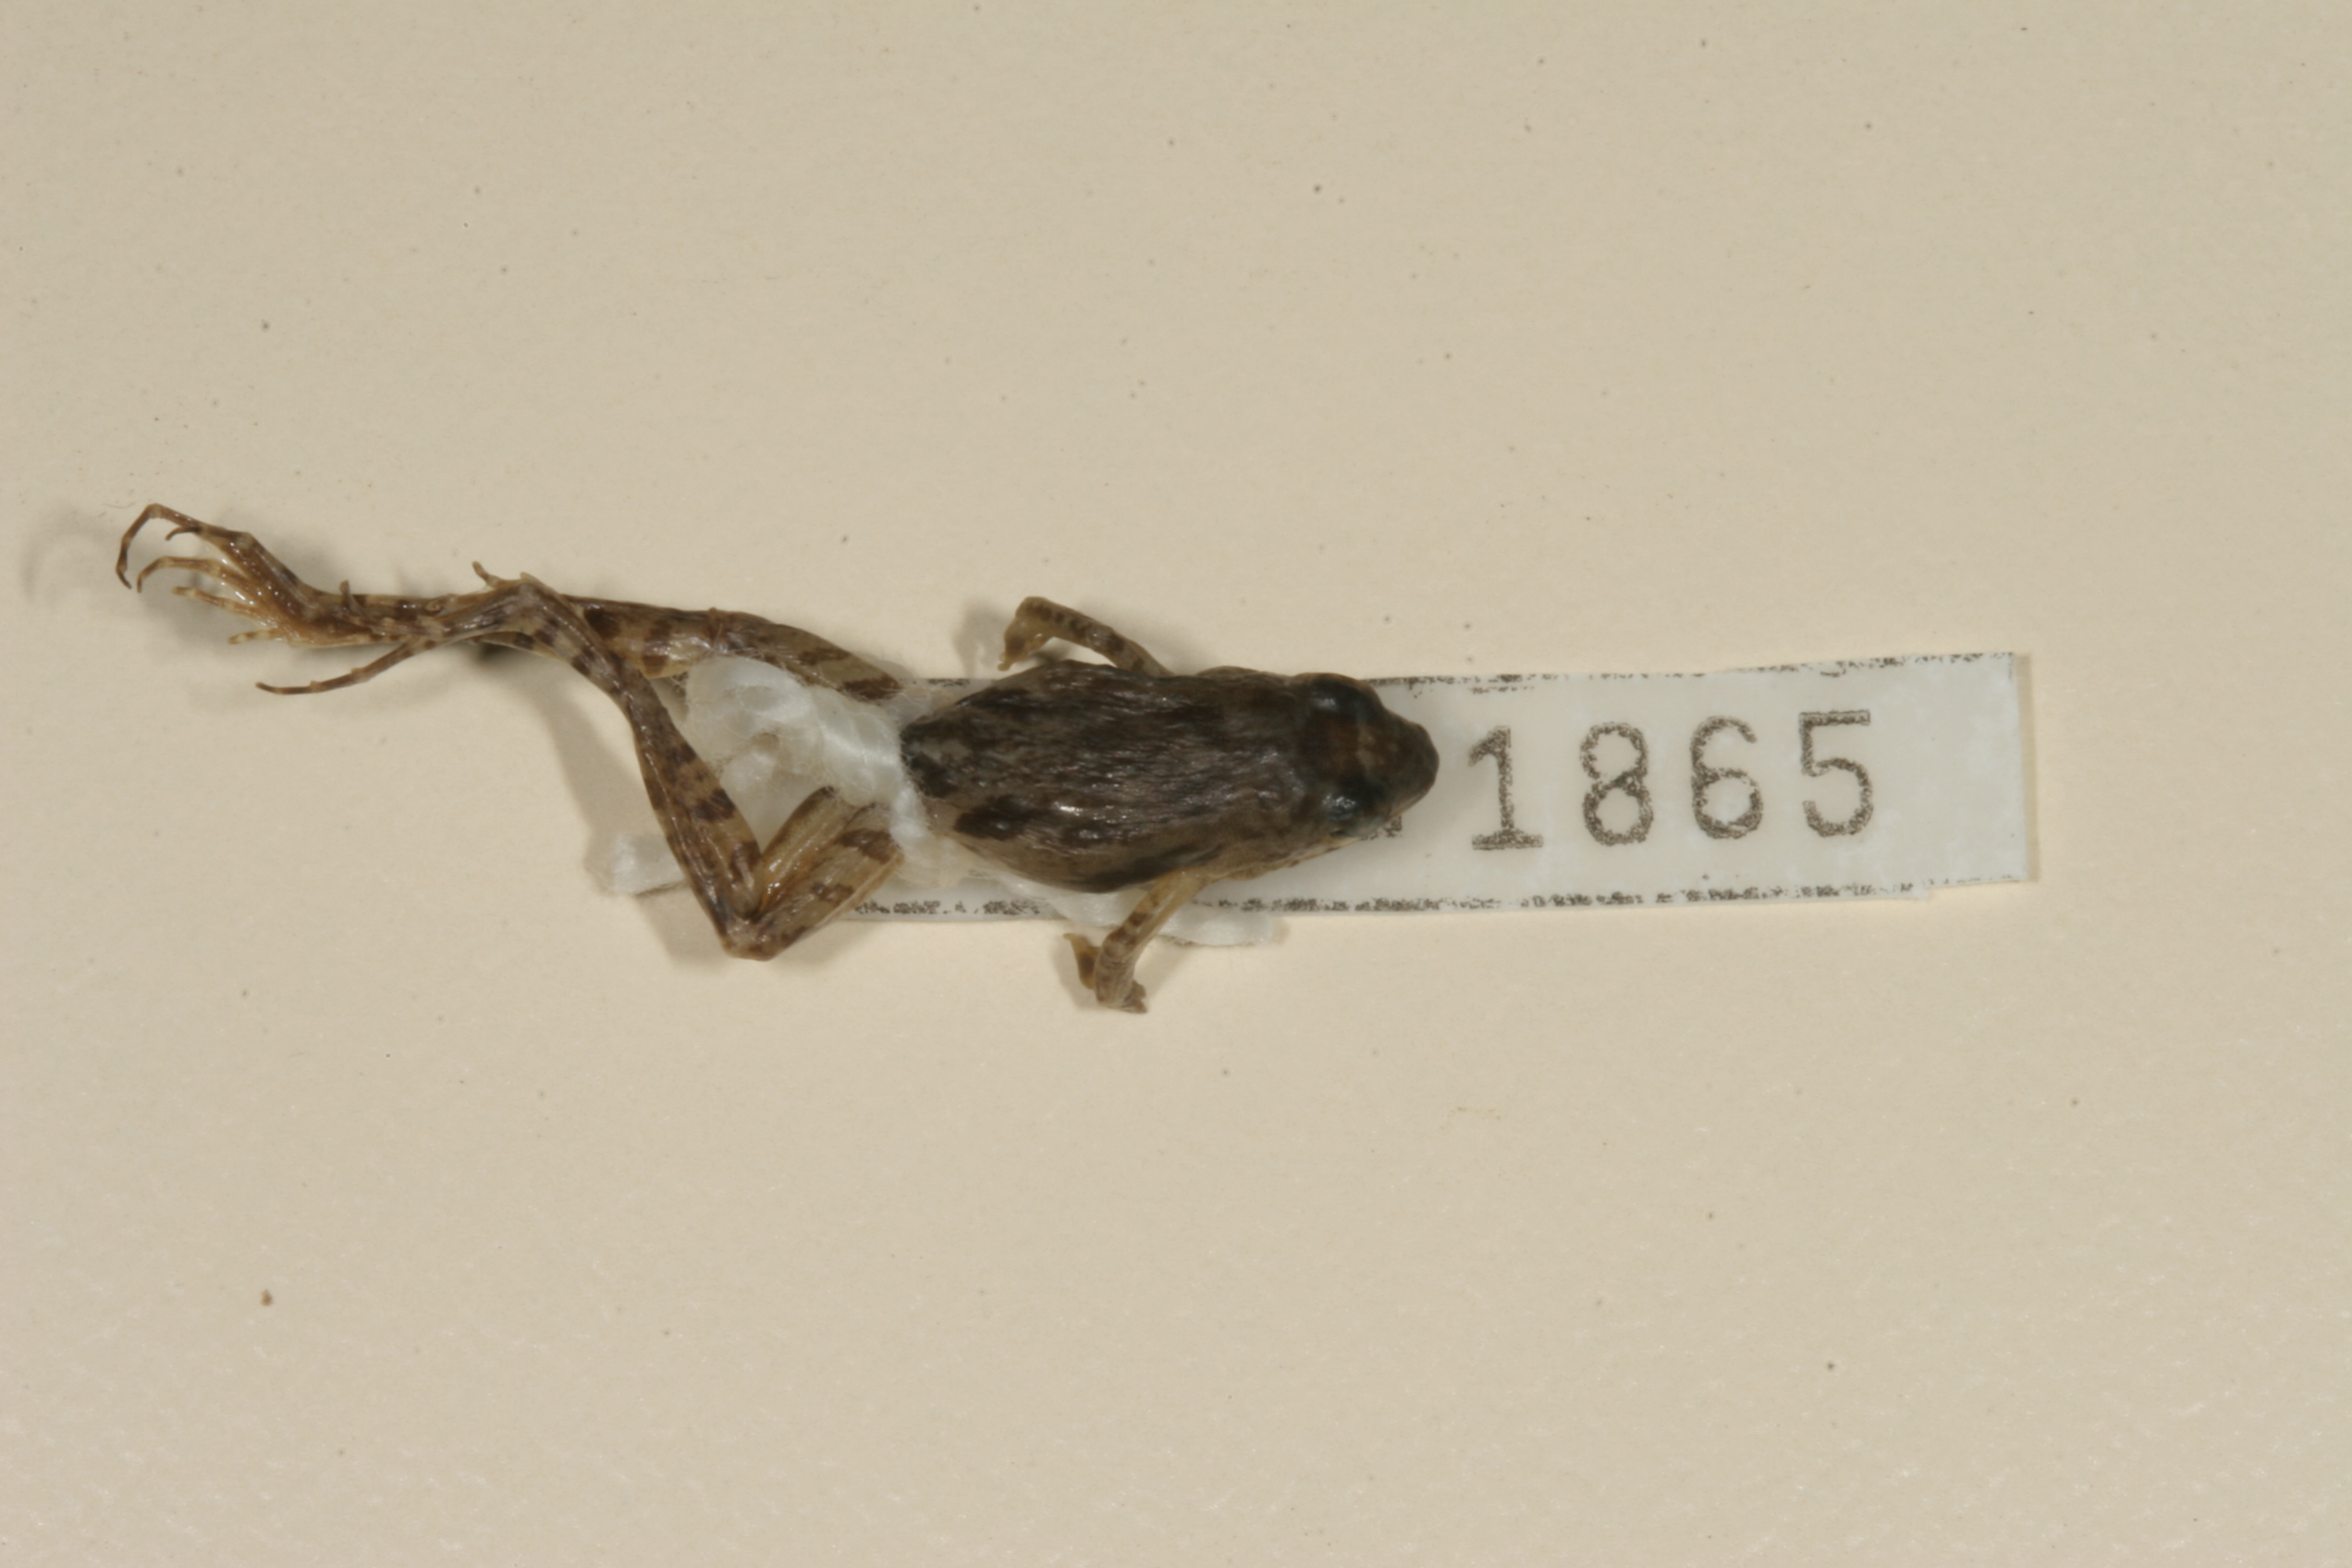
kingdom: Animalia
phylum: Chordata
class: Amphibia
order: Anura
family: Phrynobatrachidae
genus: Phrynobatrachus
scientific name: Phrynobatrachus mababiensis
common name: Dwarf puddle frog
